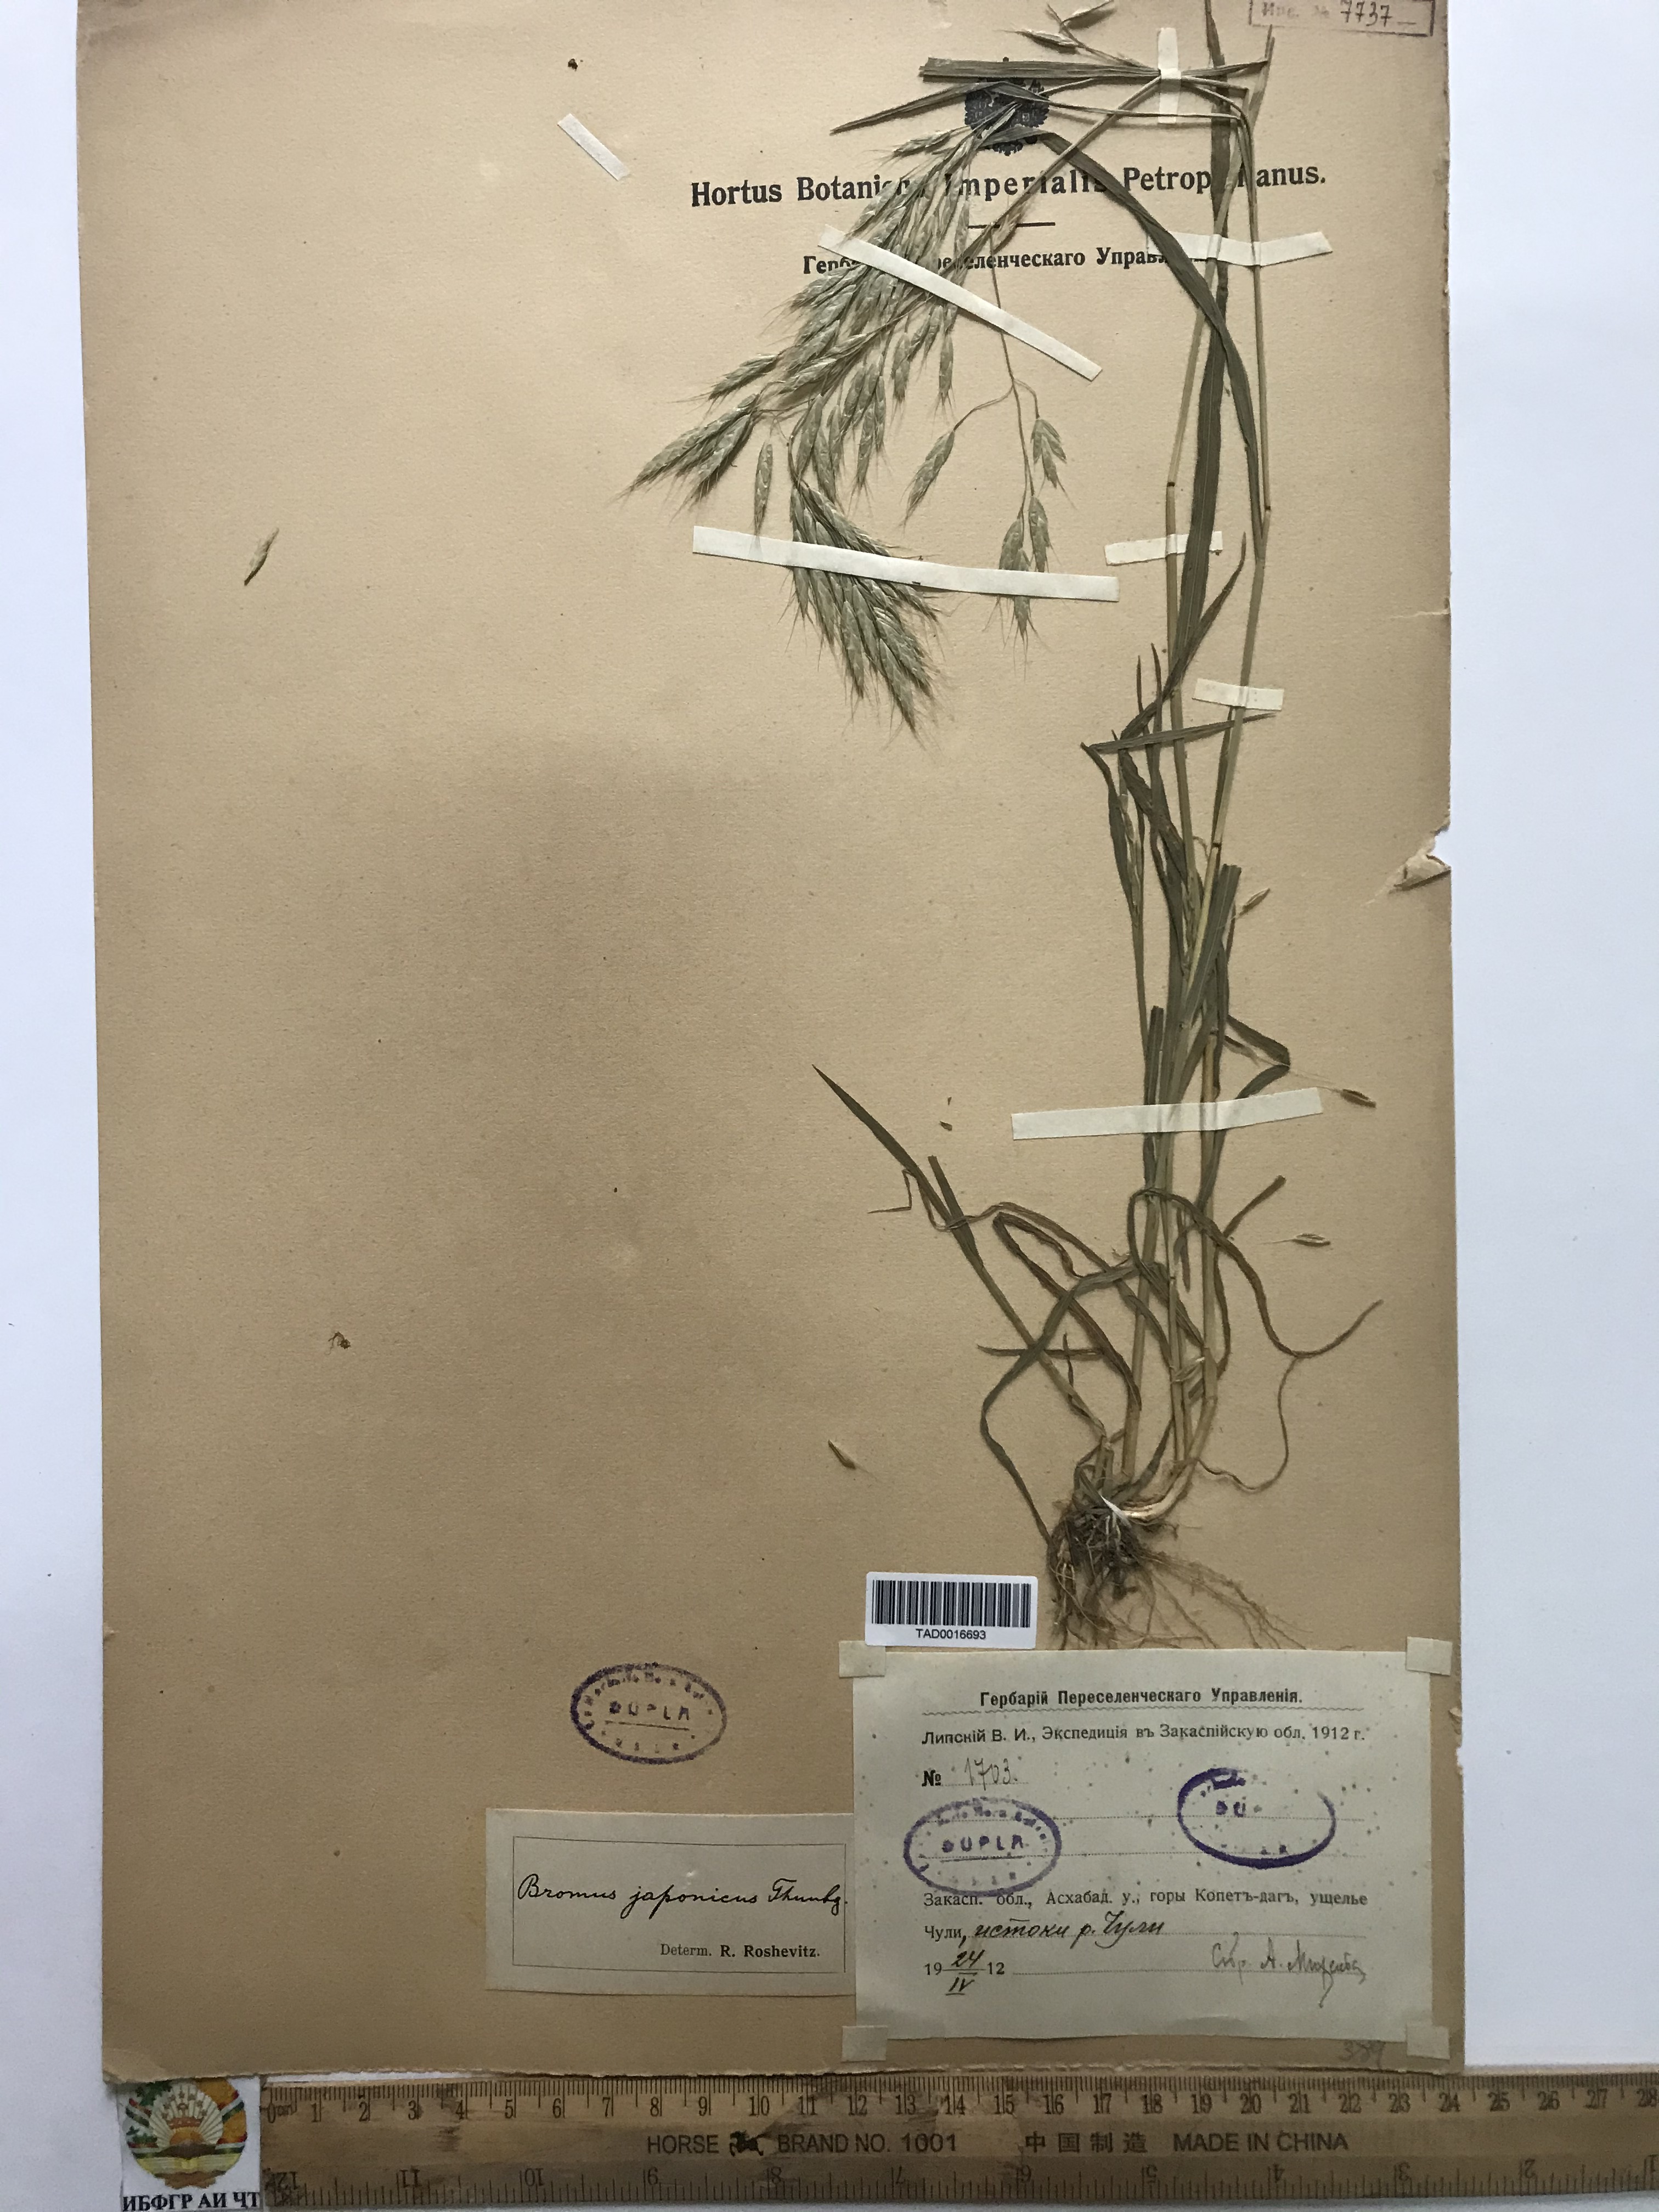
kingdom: Plantae
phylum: Tracheophyta
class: Liliopsida
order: Poales
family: Poaceae
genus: Bromus
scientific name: Bromus japonicus
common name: Japanese brome
